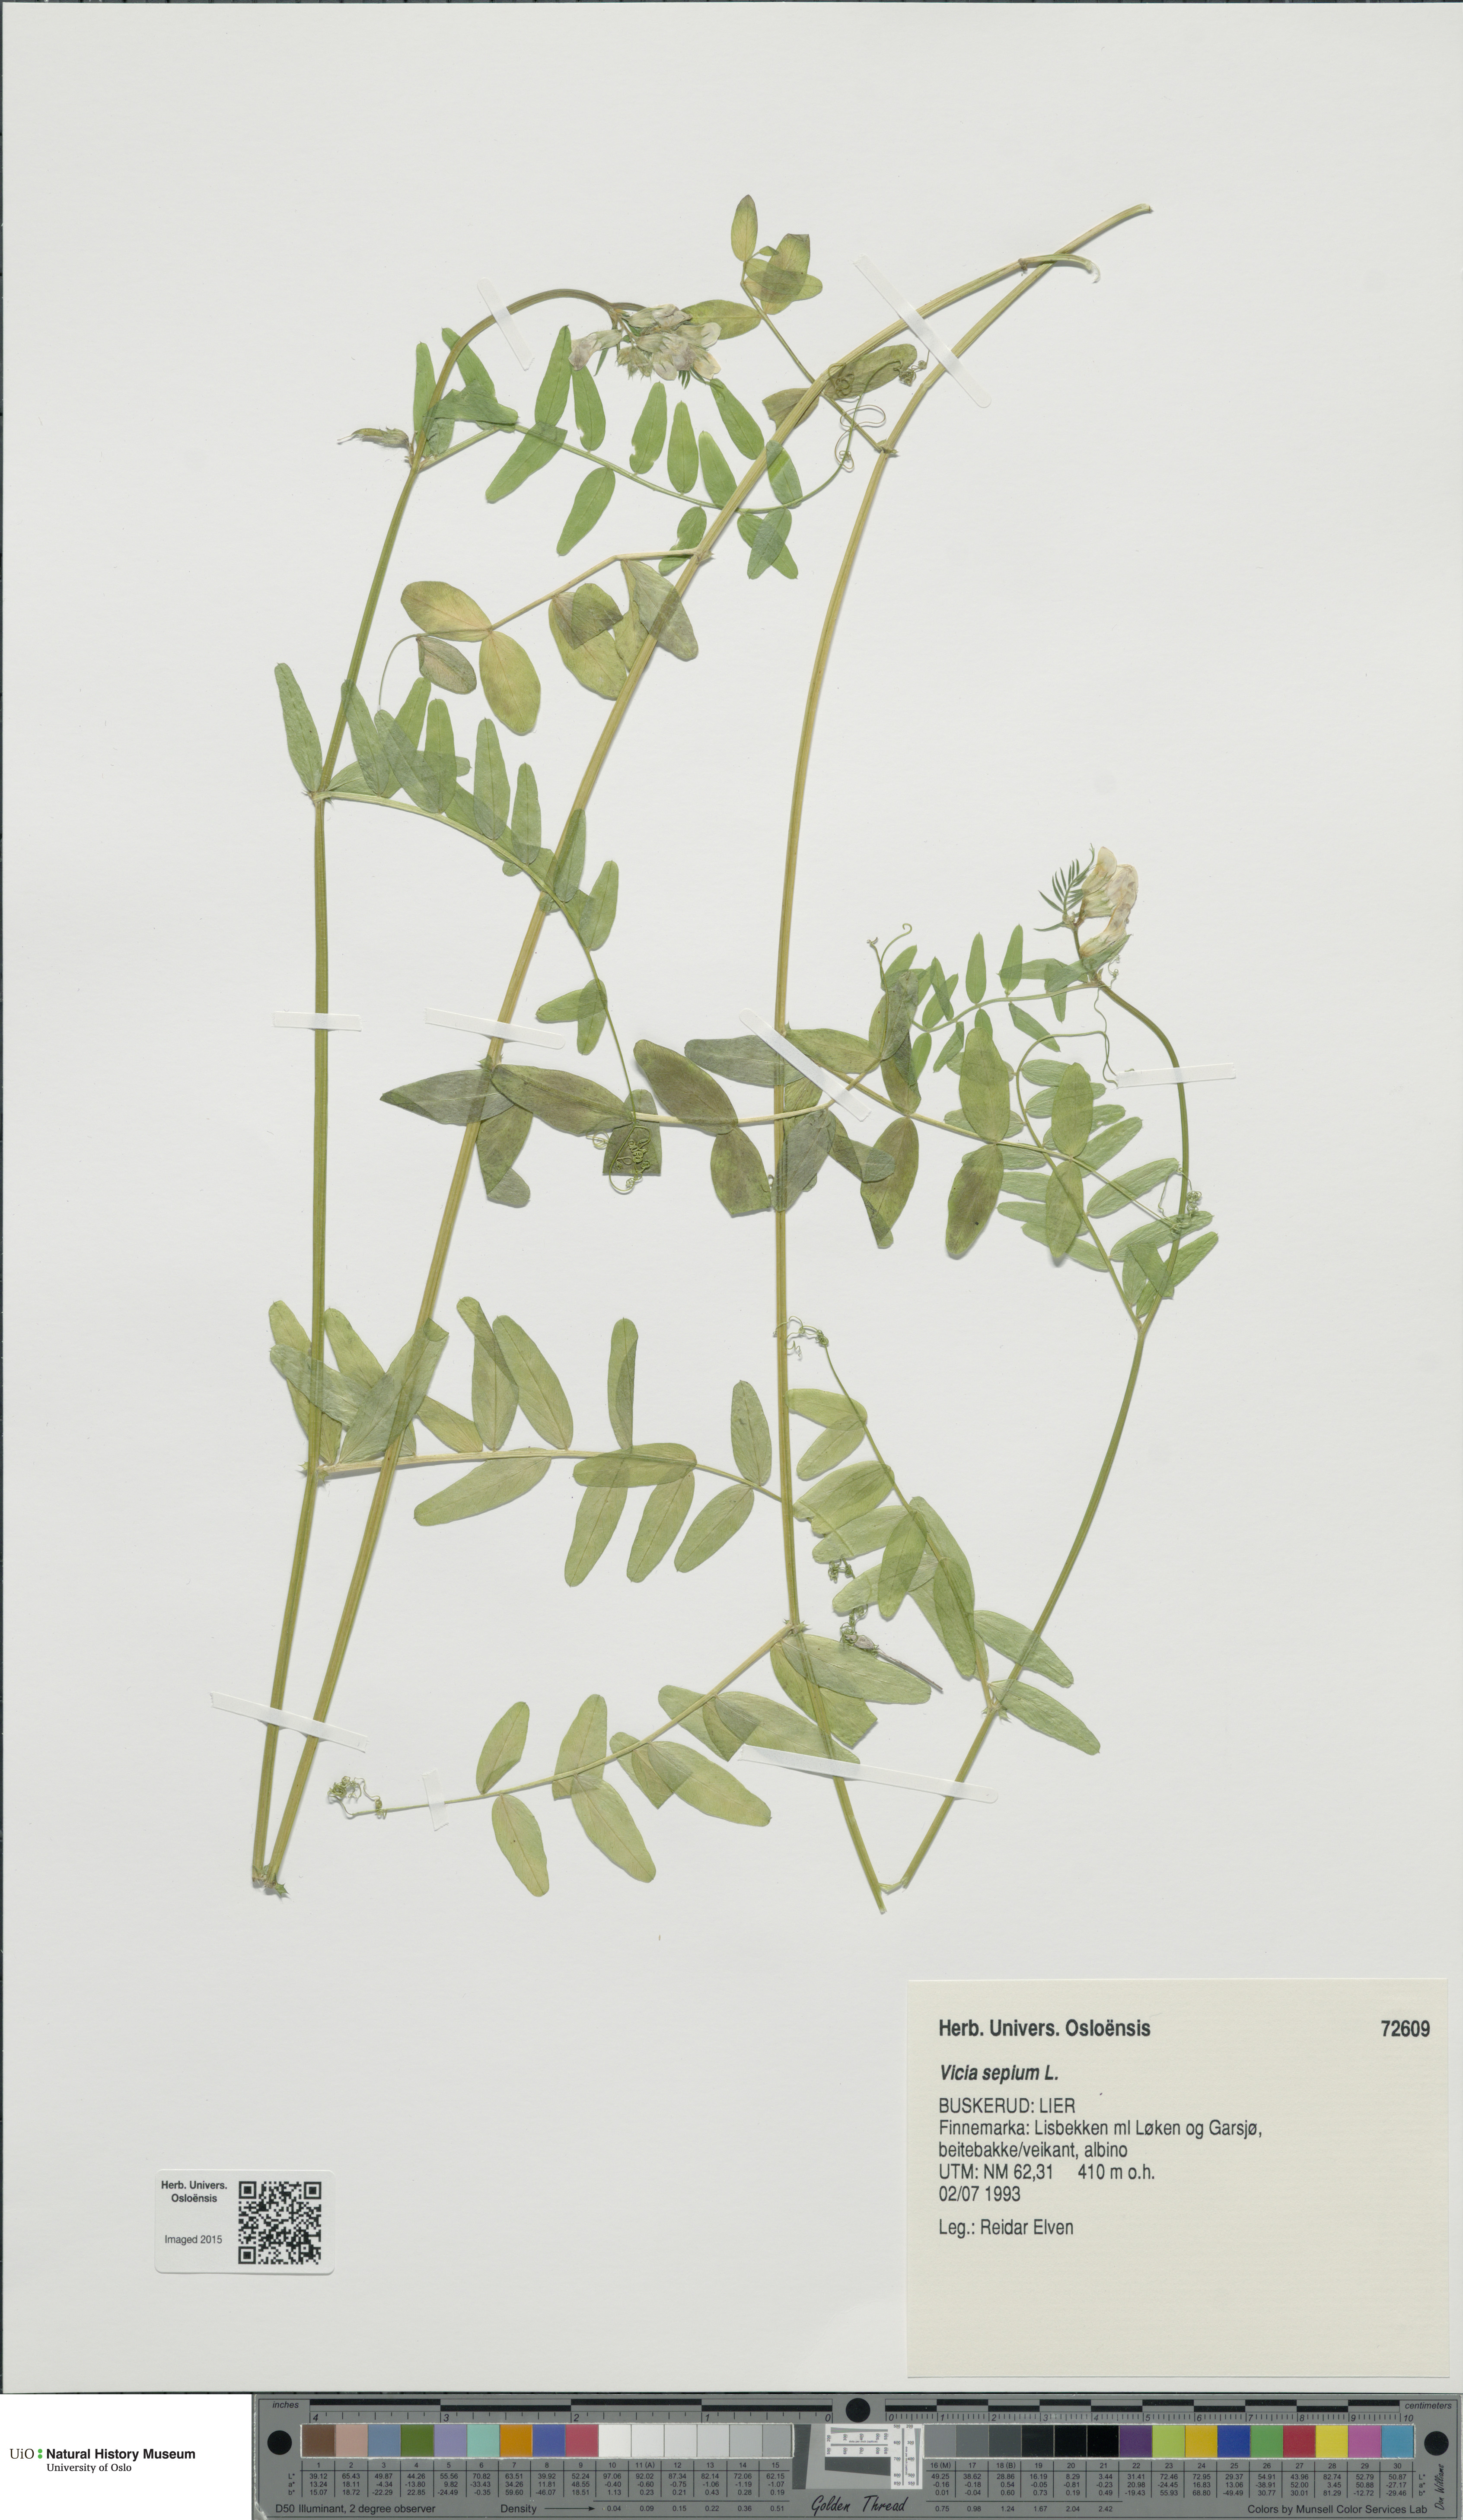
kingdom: Plantae
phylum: Tracheophyta
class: Magnoliopsida
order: Fabales
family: Fabaceae
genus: Vicia
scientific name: Vicia sepium
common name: Bush vetch
